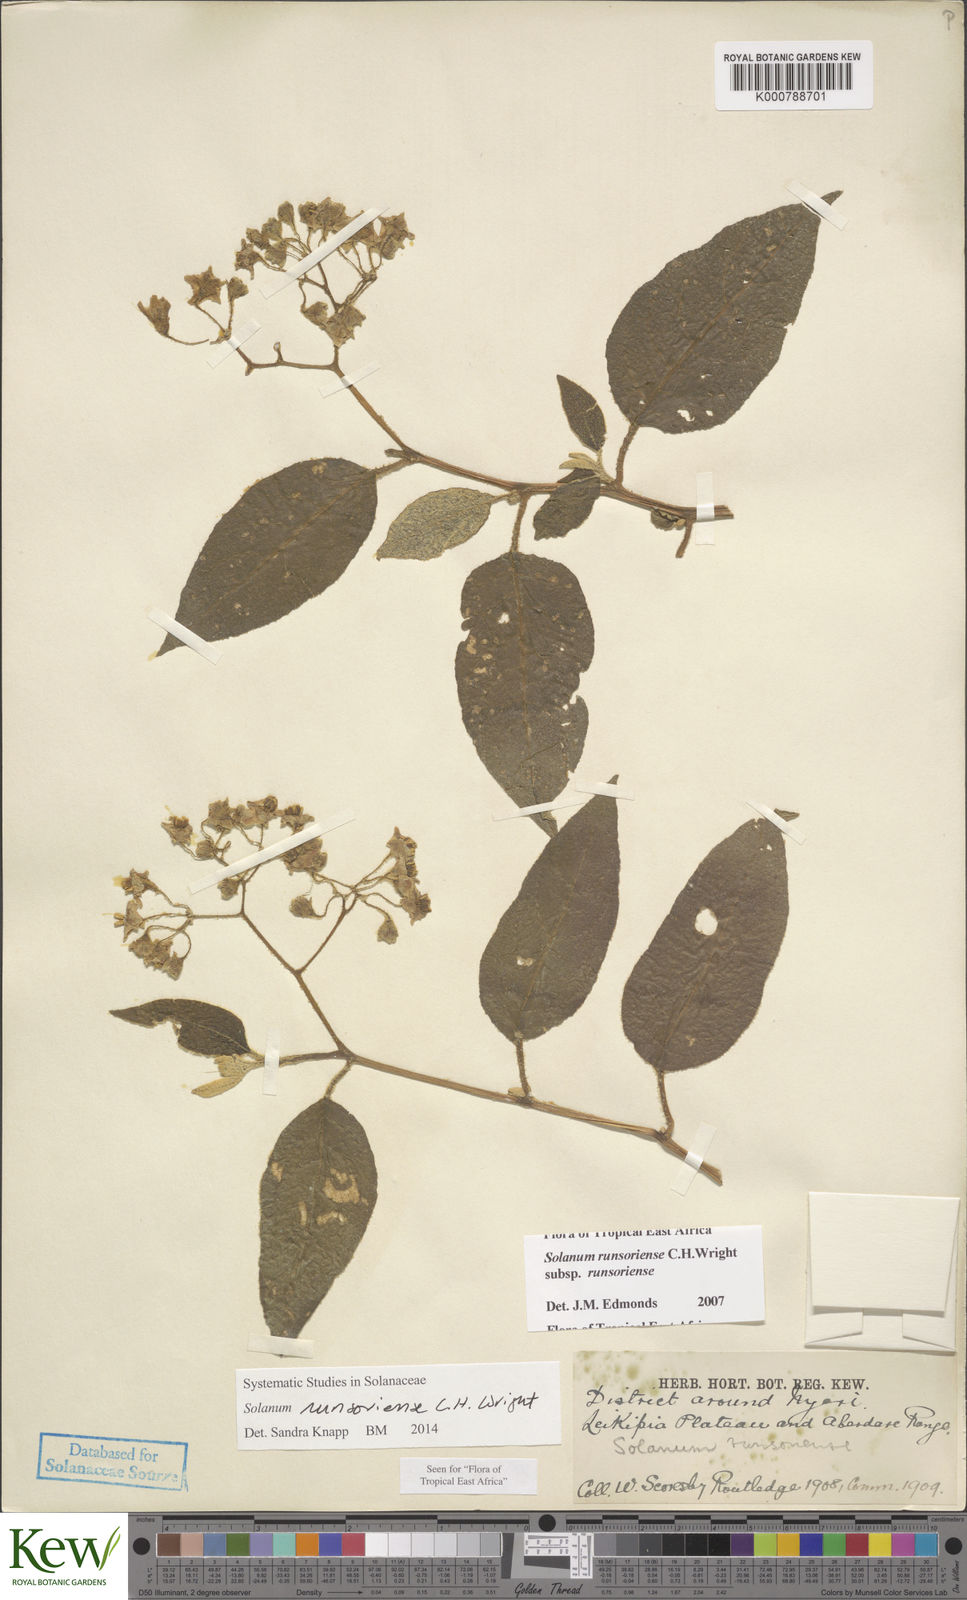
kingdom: Plantae
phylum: Tracheophyta
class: Magnoliopsida
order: Solanales
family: Solanaceae
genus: Solanum
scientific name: Solanum runsoriense
